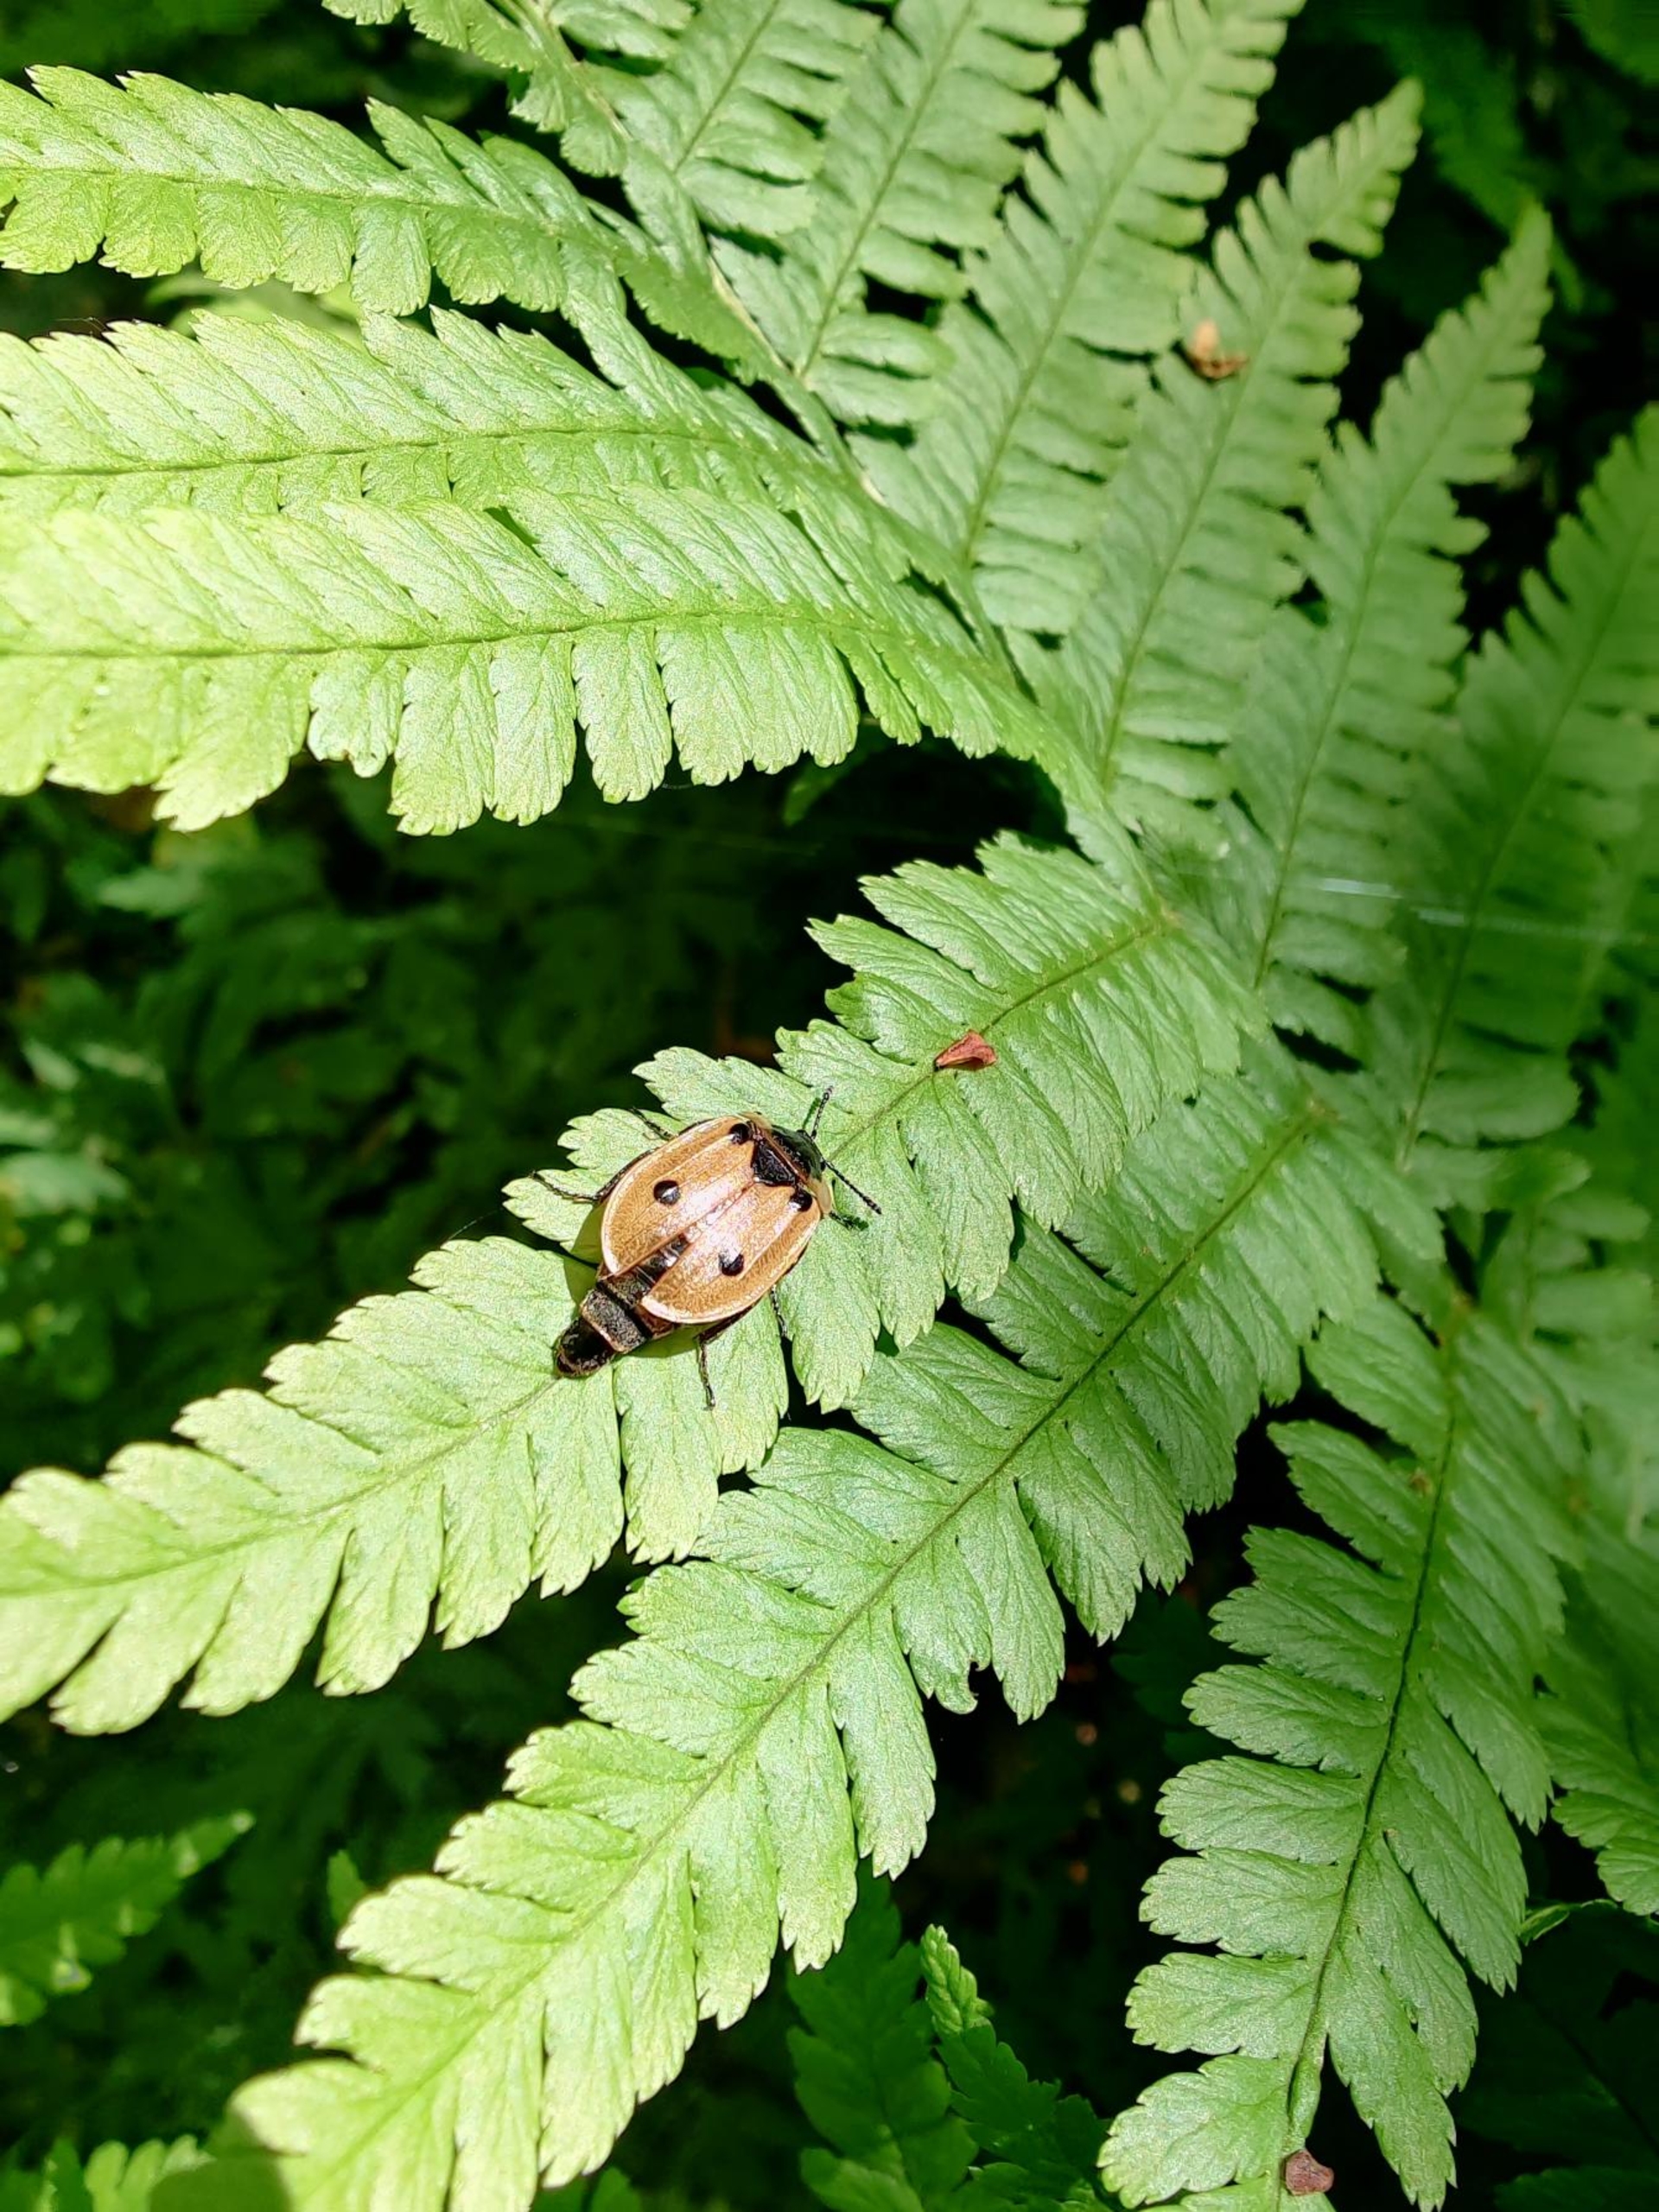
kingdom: Animalia
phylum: Arthropoda
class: Insecta
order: Coleoptera
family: Staphylinidae
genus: Dendroxena
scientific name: Dendroxena quadrimaculata
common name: Fireplettet ådselbille
